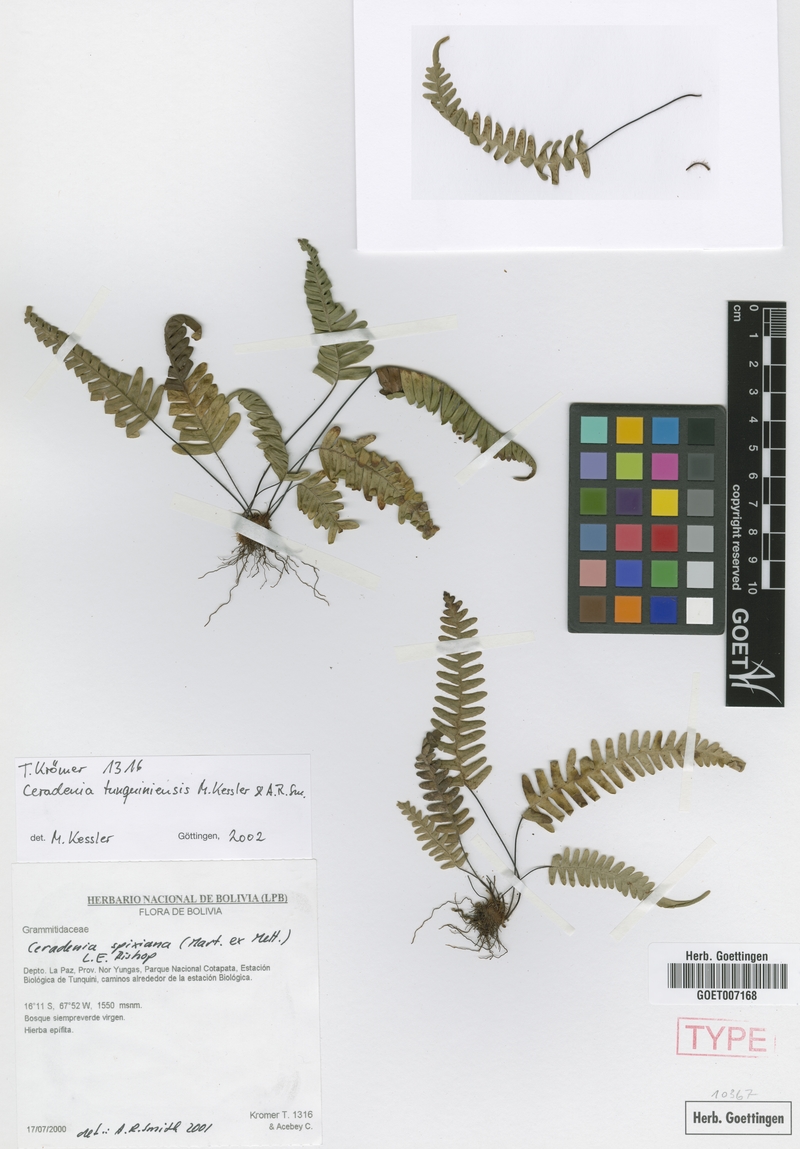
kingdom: Plantae
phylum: Tracheophyta
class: Polypodiopsida
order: Polypodiales
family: Polypodiaceae
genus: Ceradenia
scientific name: Ceradenia tunquiniensis
